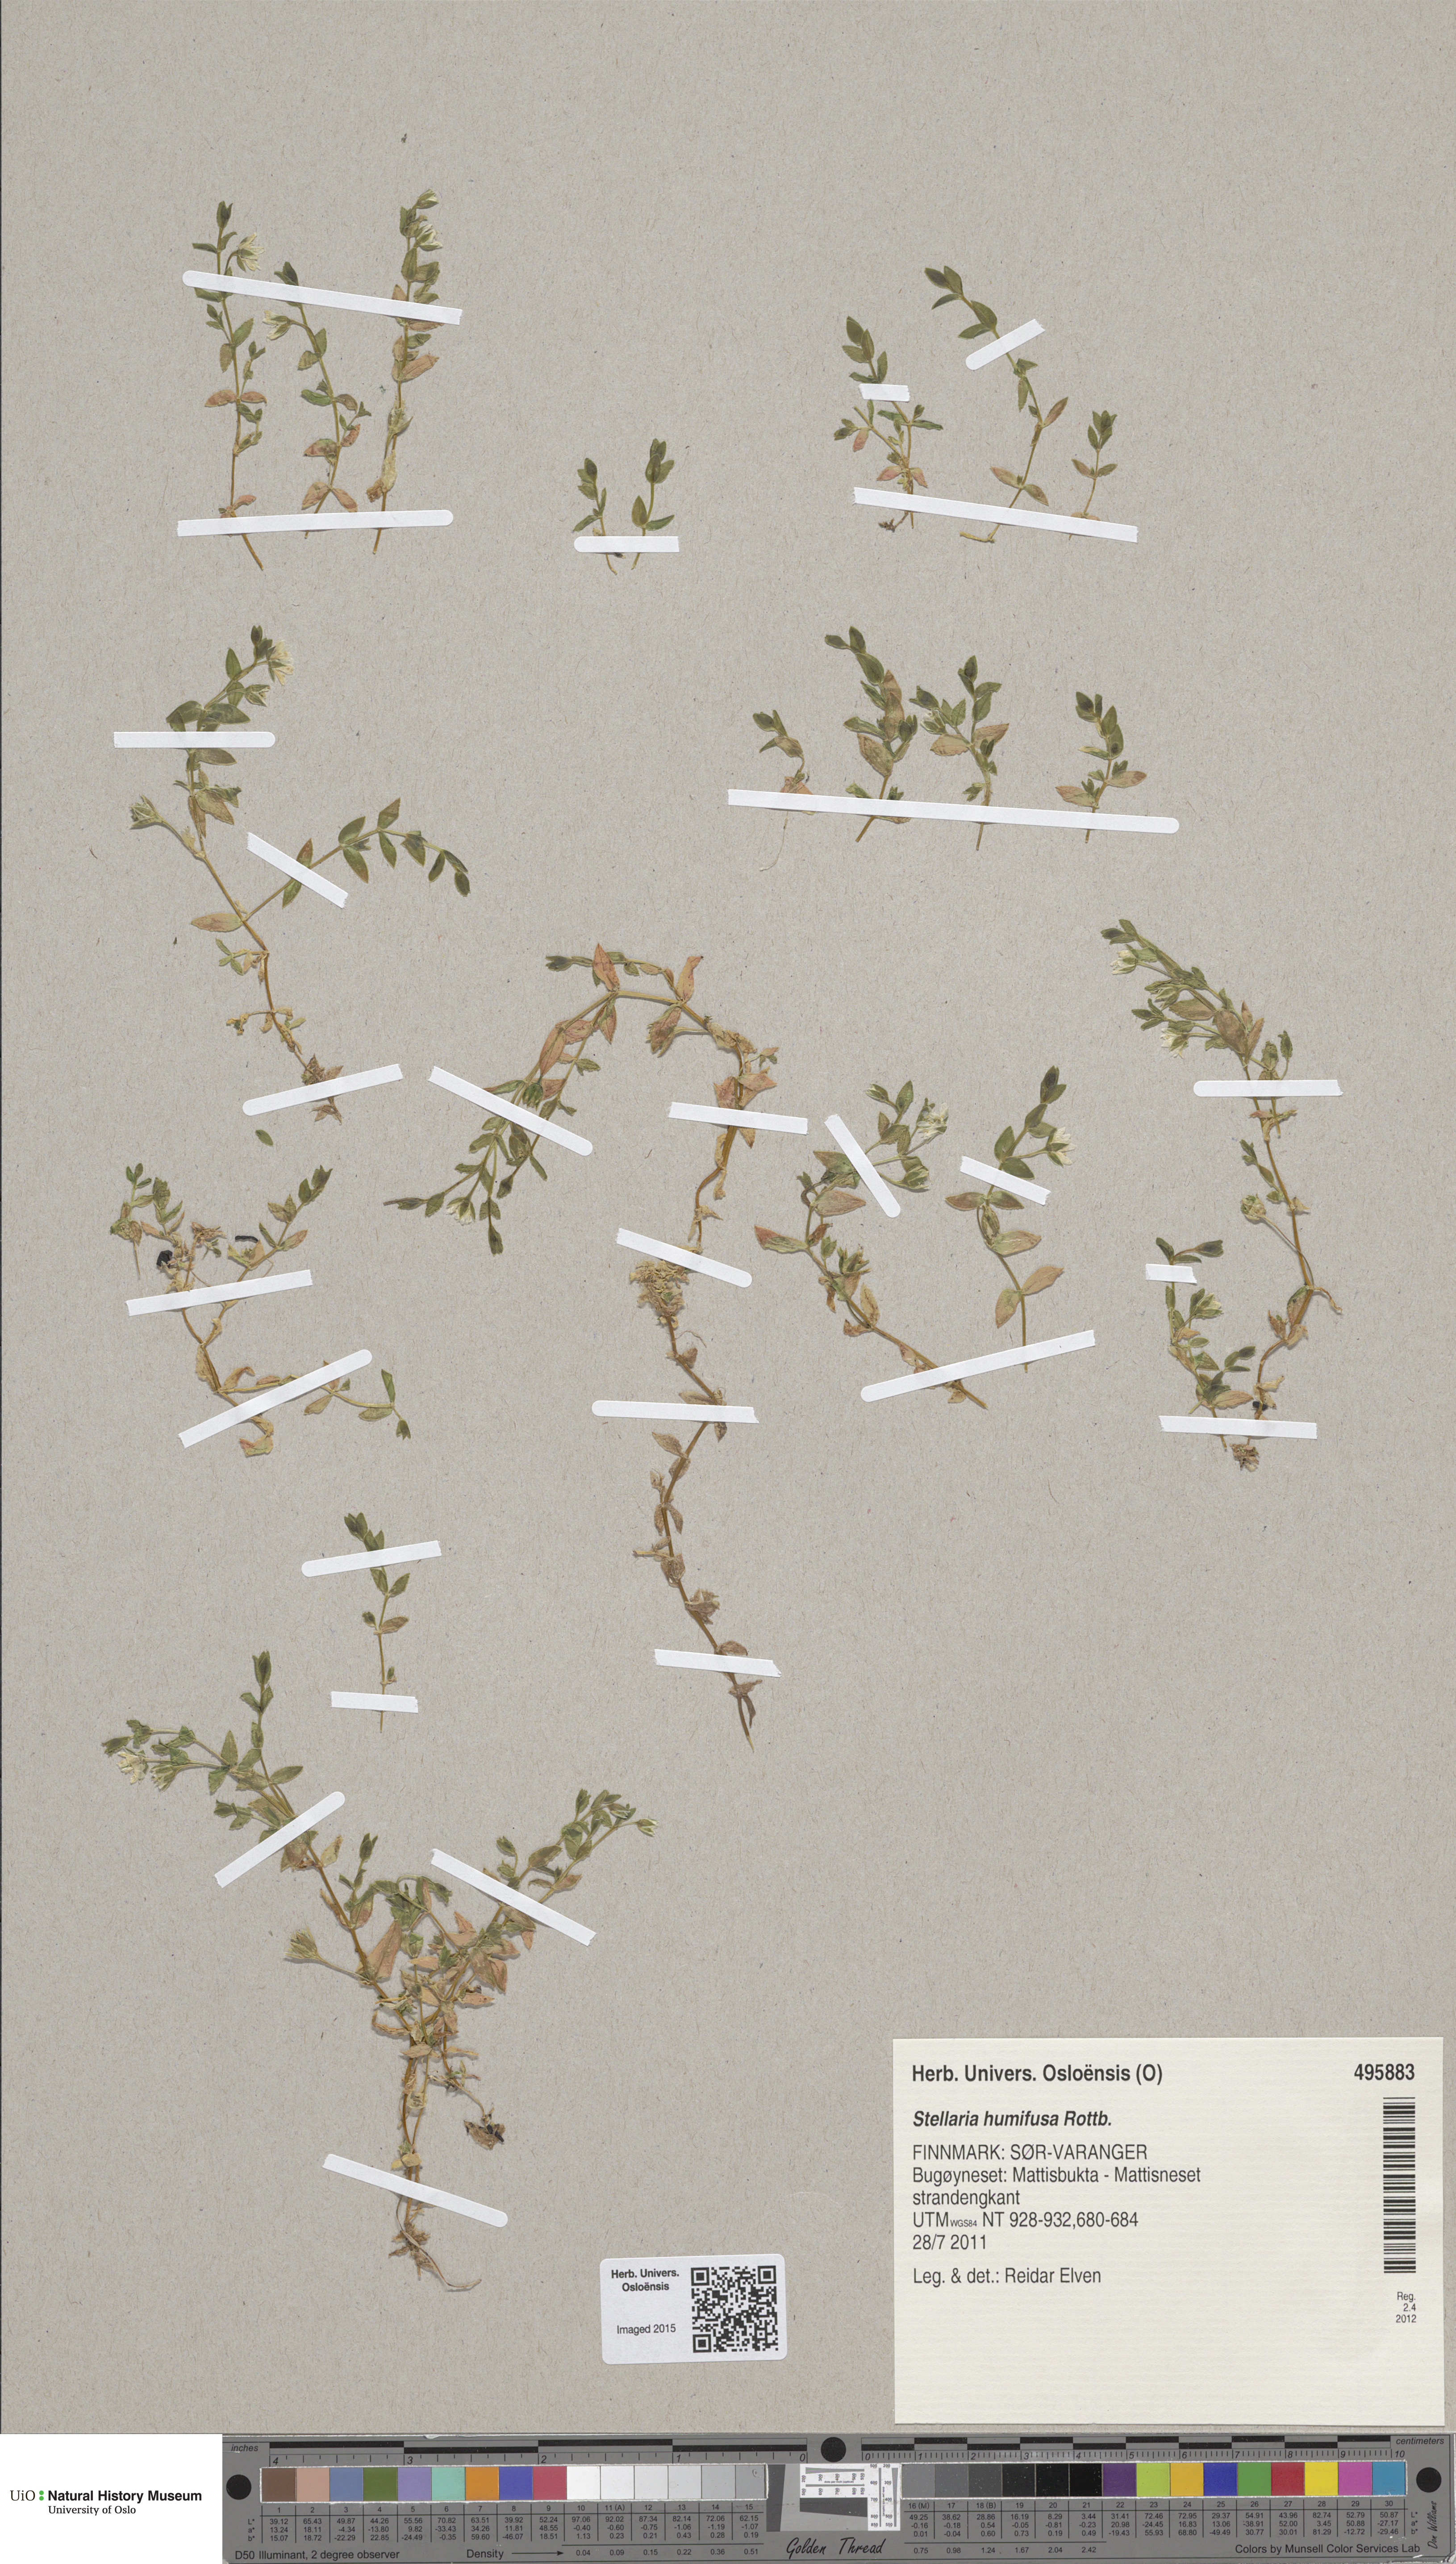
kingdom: Plantae
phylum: Tracheophyta
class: Magnoliopsida
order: Caryophyllales
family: Caryophyllaceae
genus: Stellaria
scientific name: Stellaria humifusa
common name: Creeping starwort
